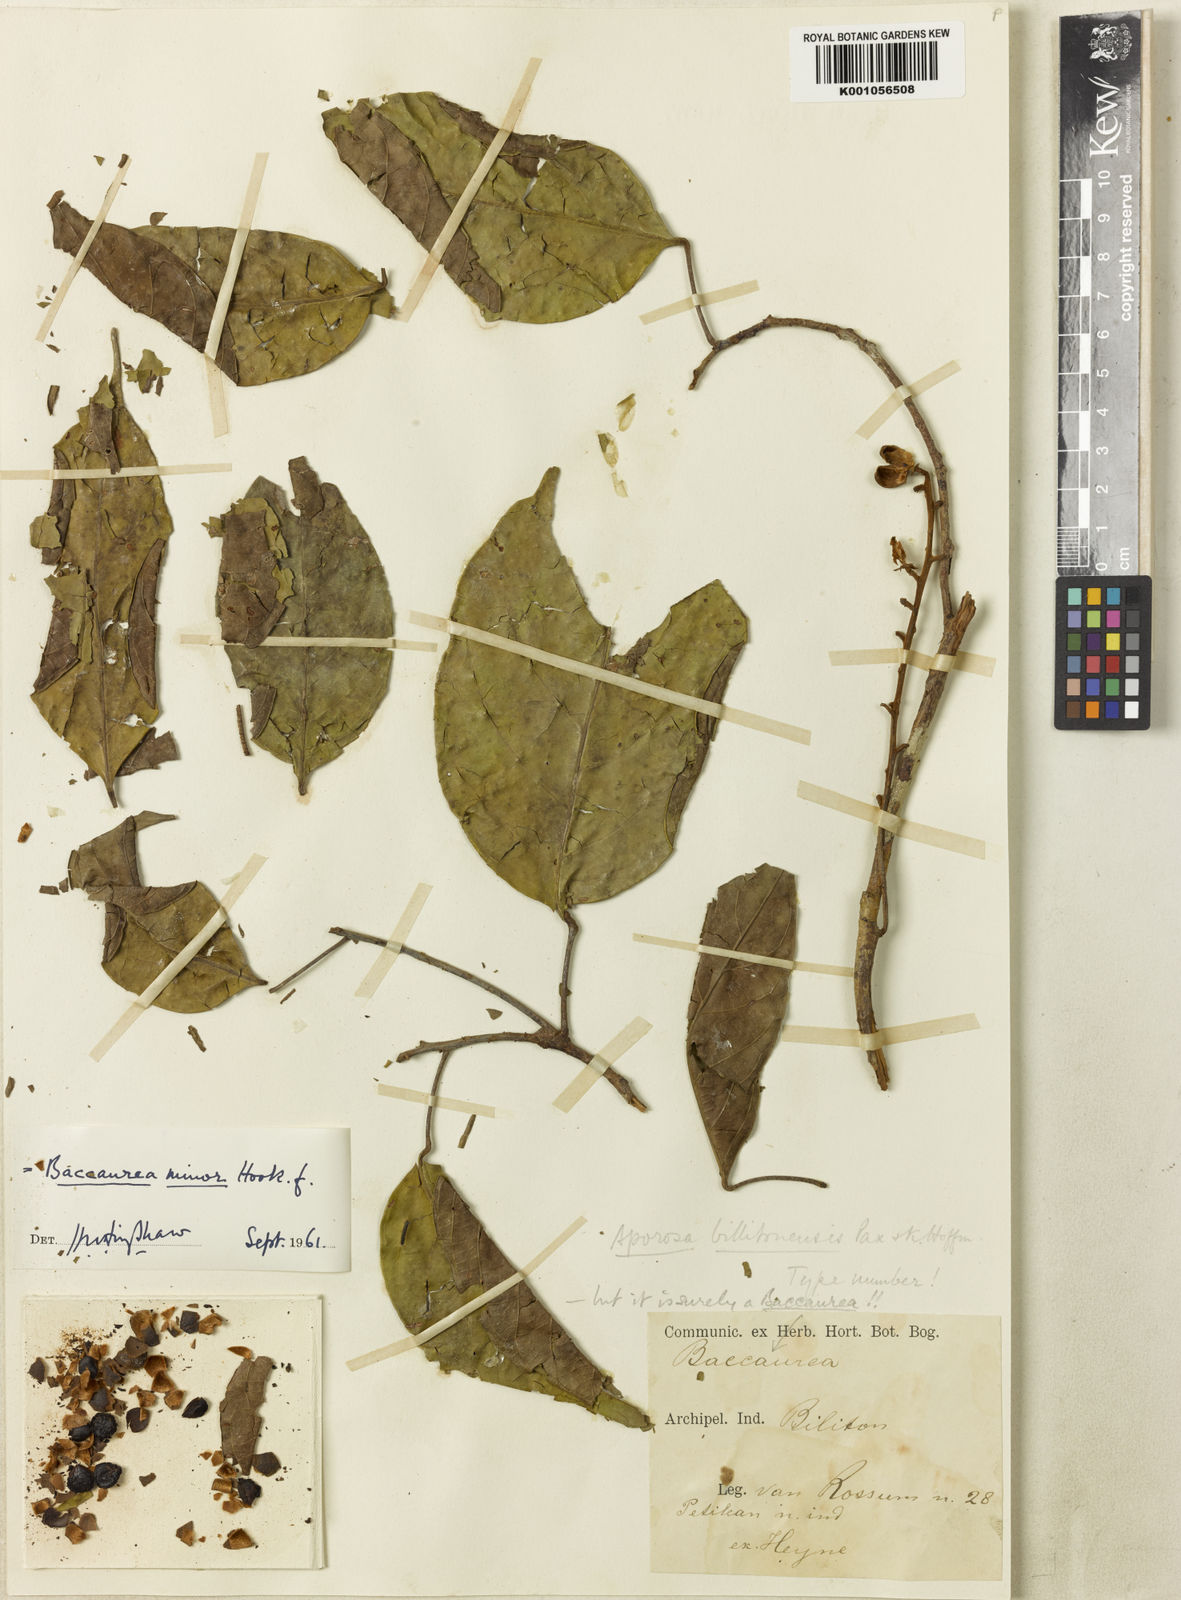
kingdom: Plantae
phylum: Tracheophyta
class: Magnoliopsida
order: Malpighiales
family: Phyllanthaceae
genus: Baccaurea
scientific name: Baccaurea minor
